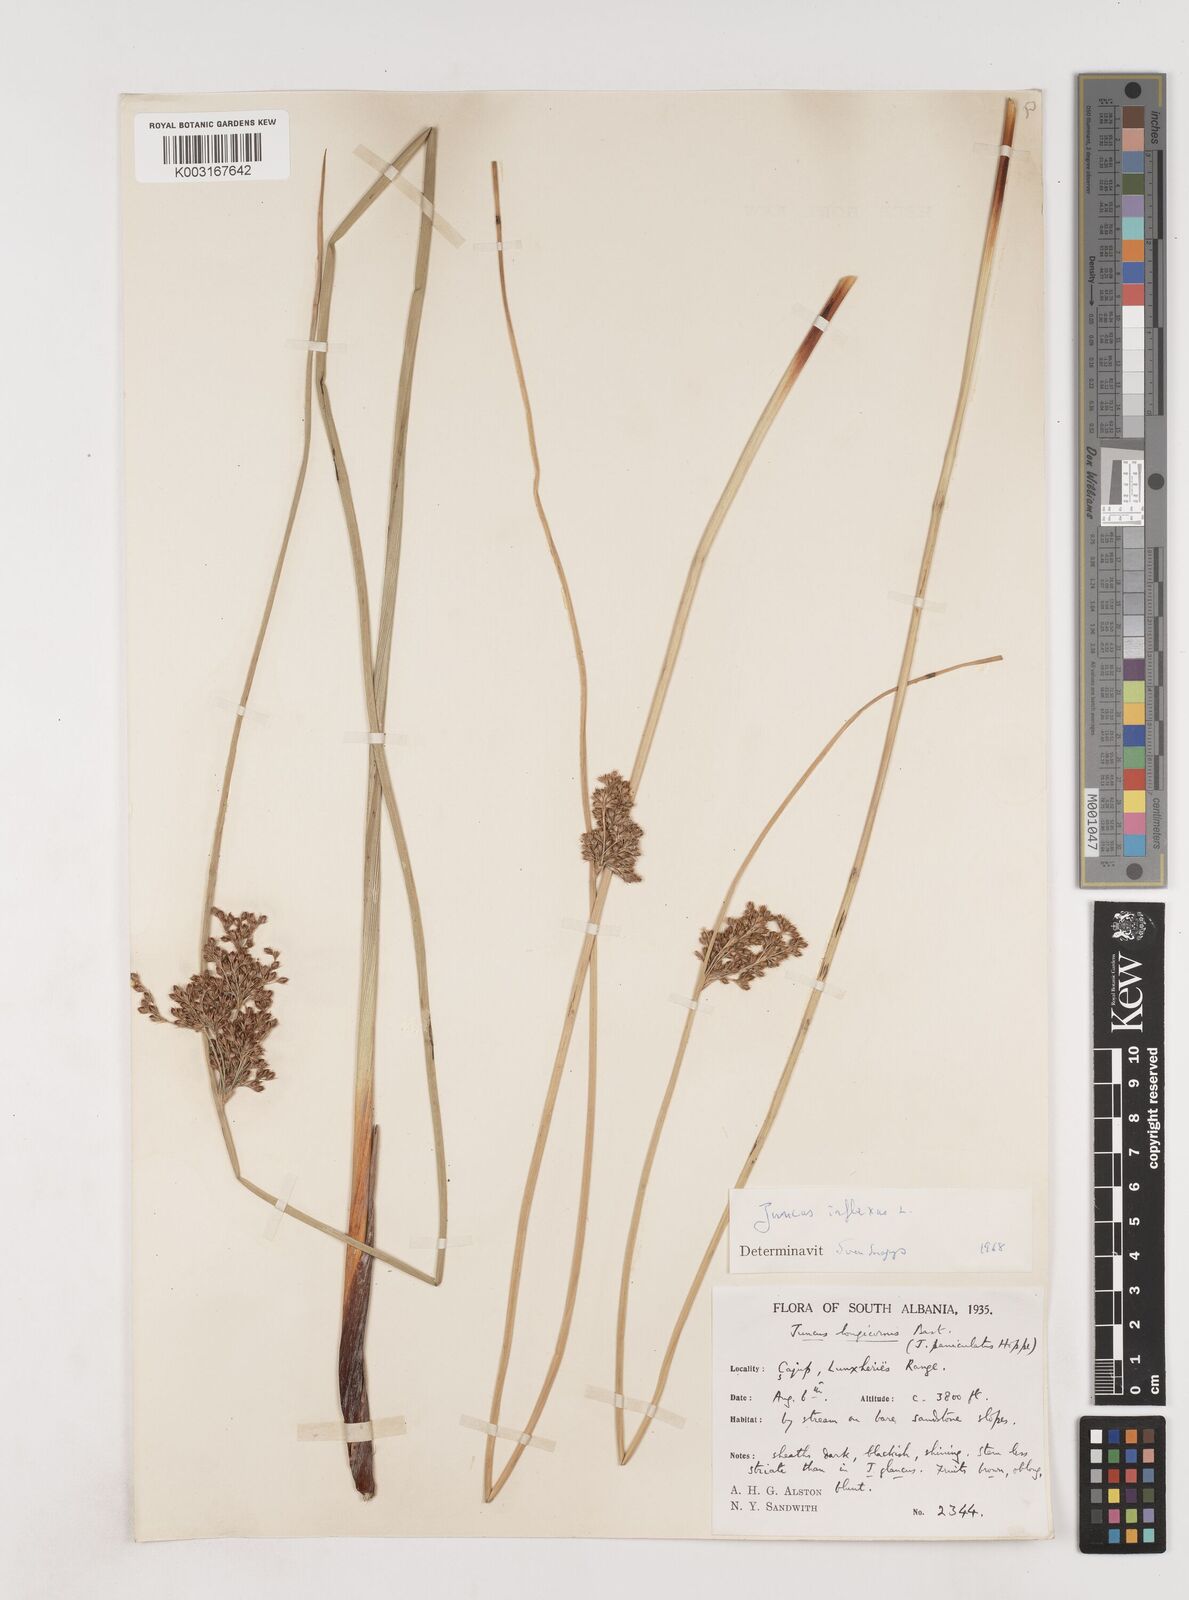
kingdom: Plantae
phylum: Tracheophyta
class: Liliopsida
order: Poales
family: Juncaceae
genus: Juncus
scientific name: Juncus inflexus
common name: Hard rush
